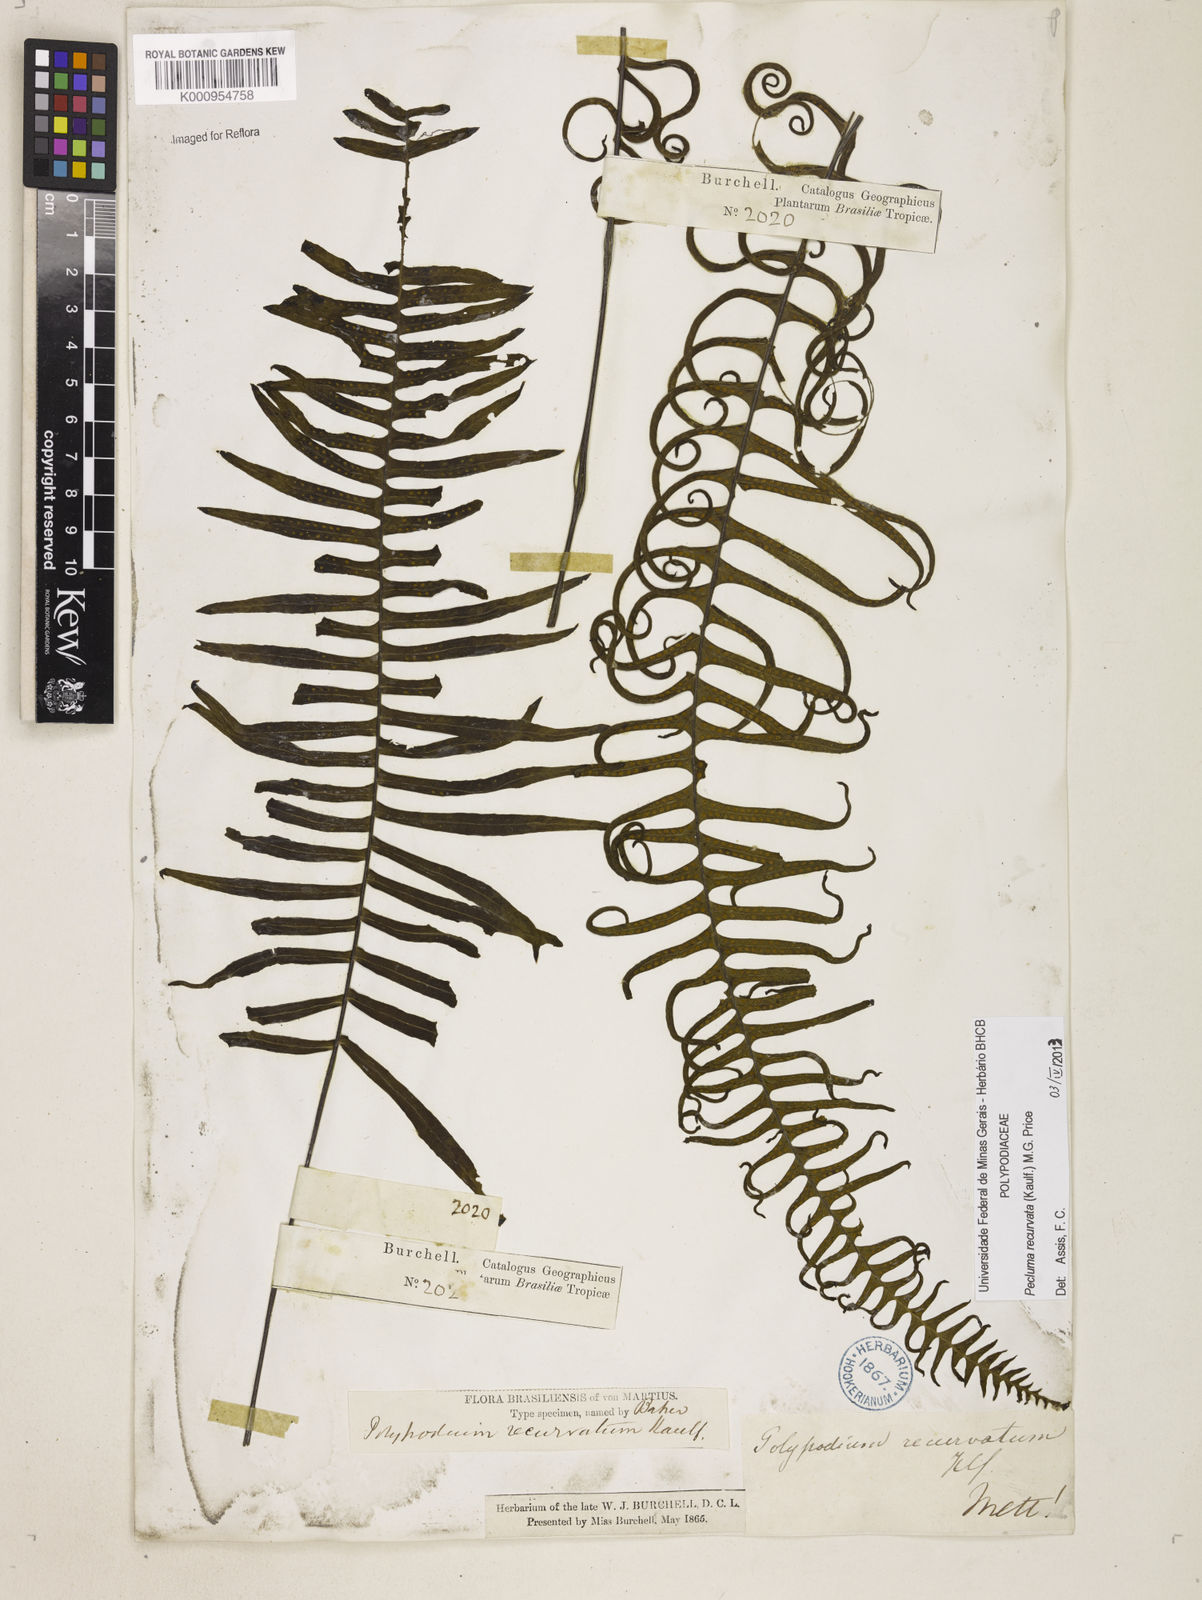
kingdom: Plantae
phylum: Tracheophyta
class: Polypodiopsida
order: Polypodiales
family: Polypodiaceae
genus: Pecluma
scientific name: Pecluma recurvata
